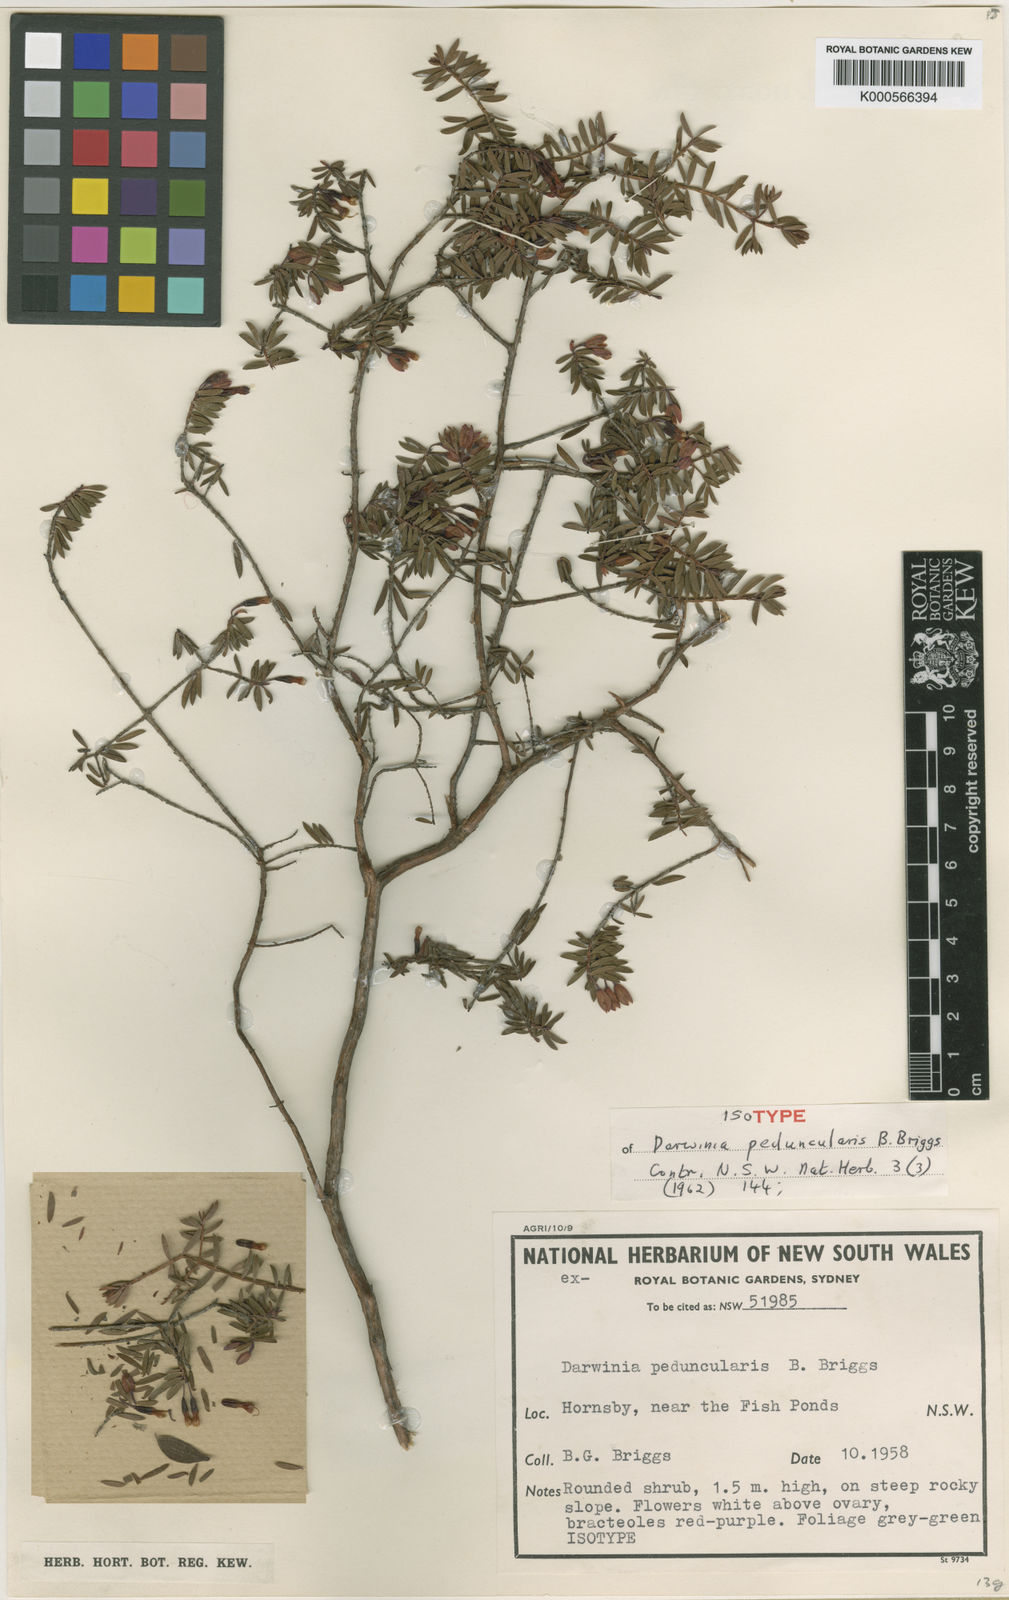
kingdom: Plantae
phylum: Tracheophyta
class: Magnoliopsida
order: Myrtales
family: Myrtaceae
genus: Darwinia
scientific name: Darwinia peduncularis
